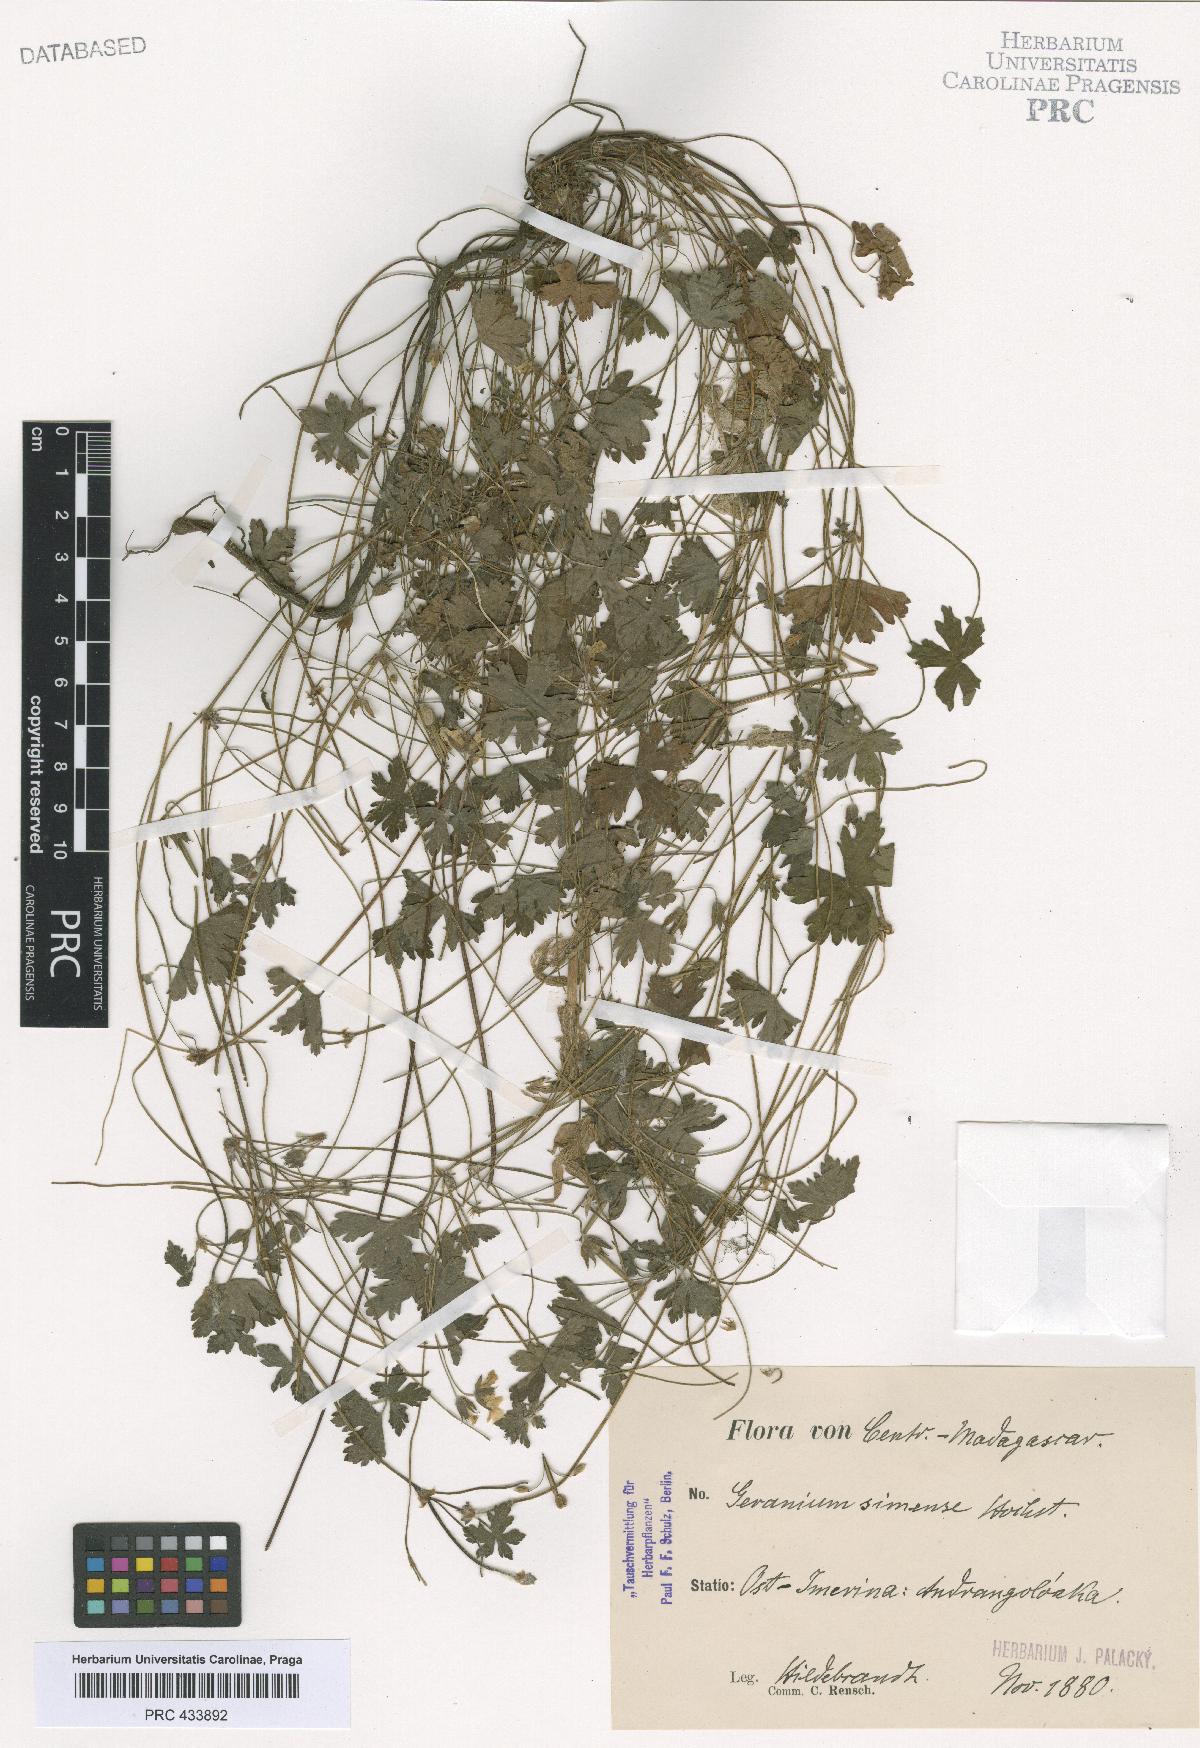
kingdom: Plantae
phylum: Tracheophyta
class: Magnoliopsida
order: Geraniales
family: Geraniaceae
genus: Geranium
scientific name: Geranium arabicum
